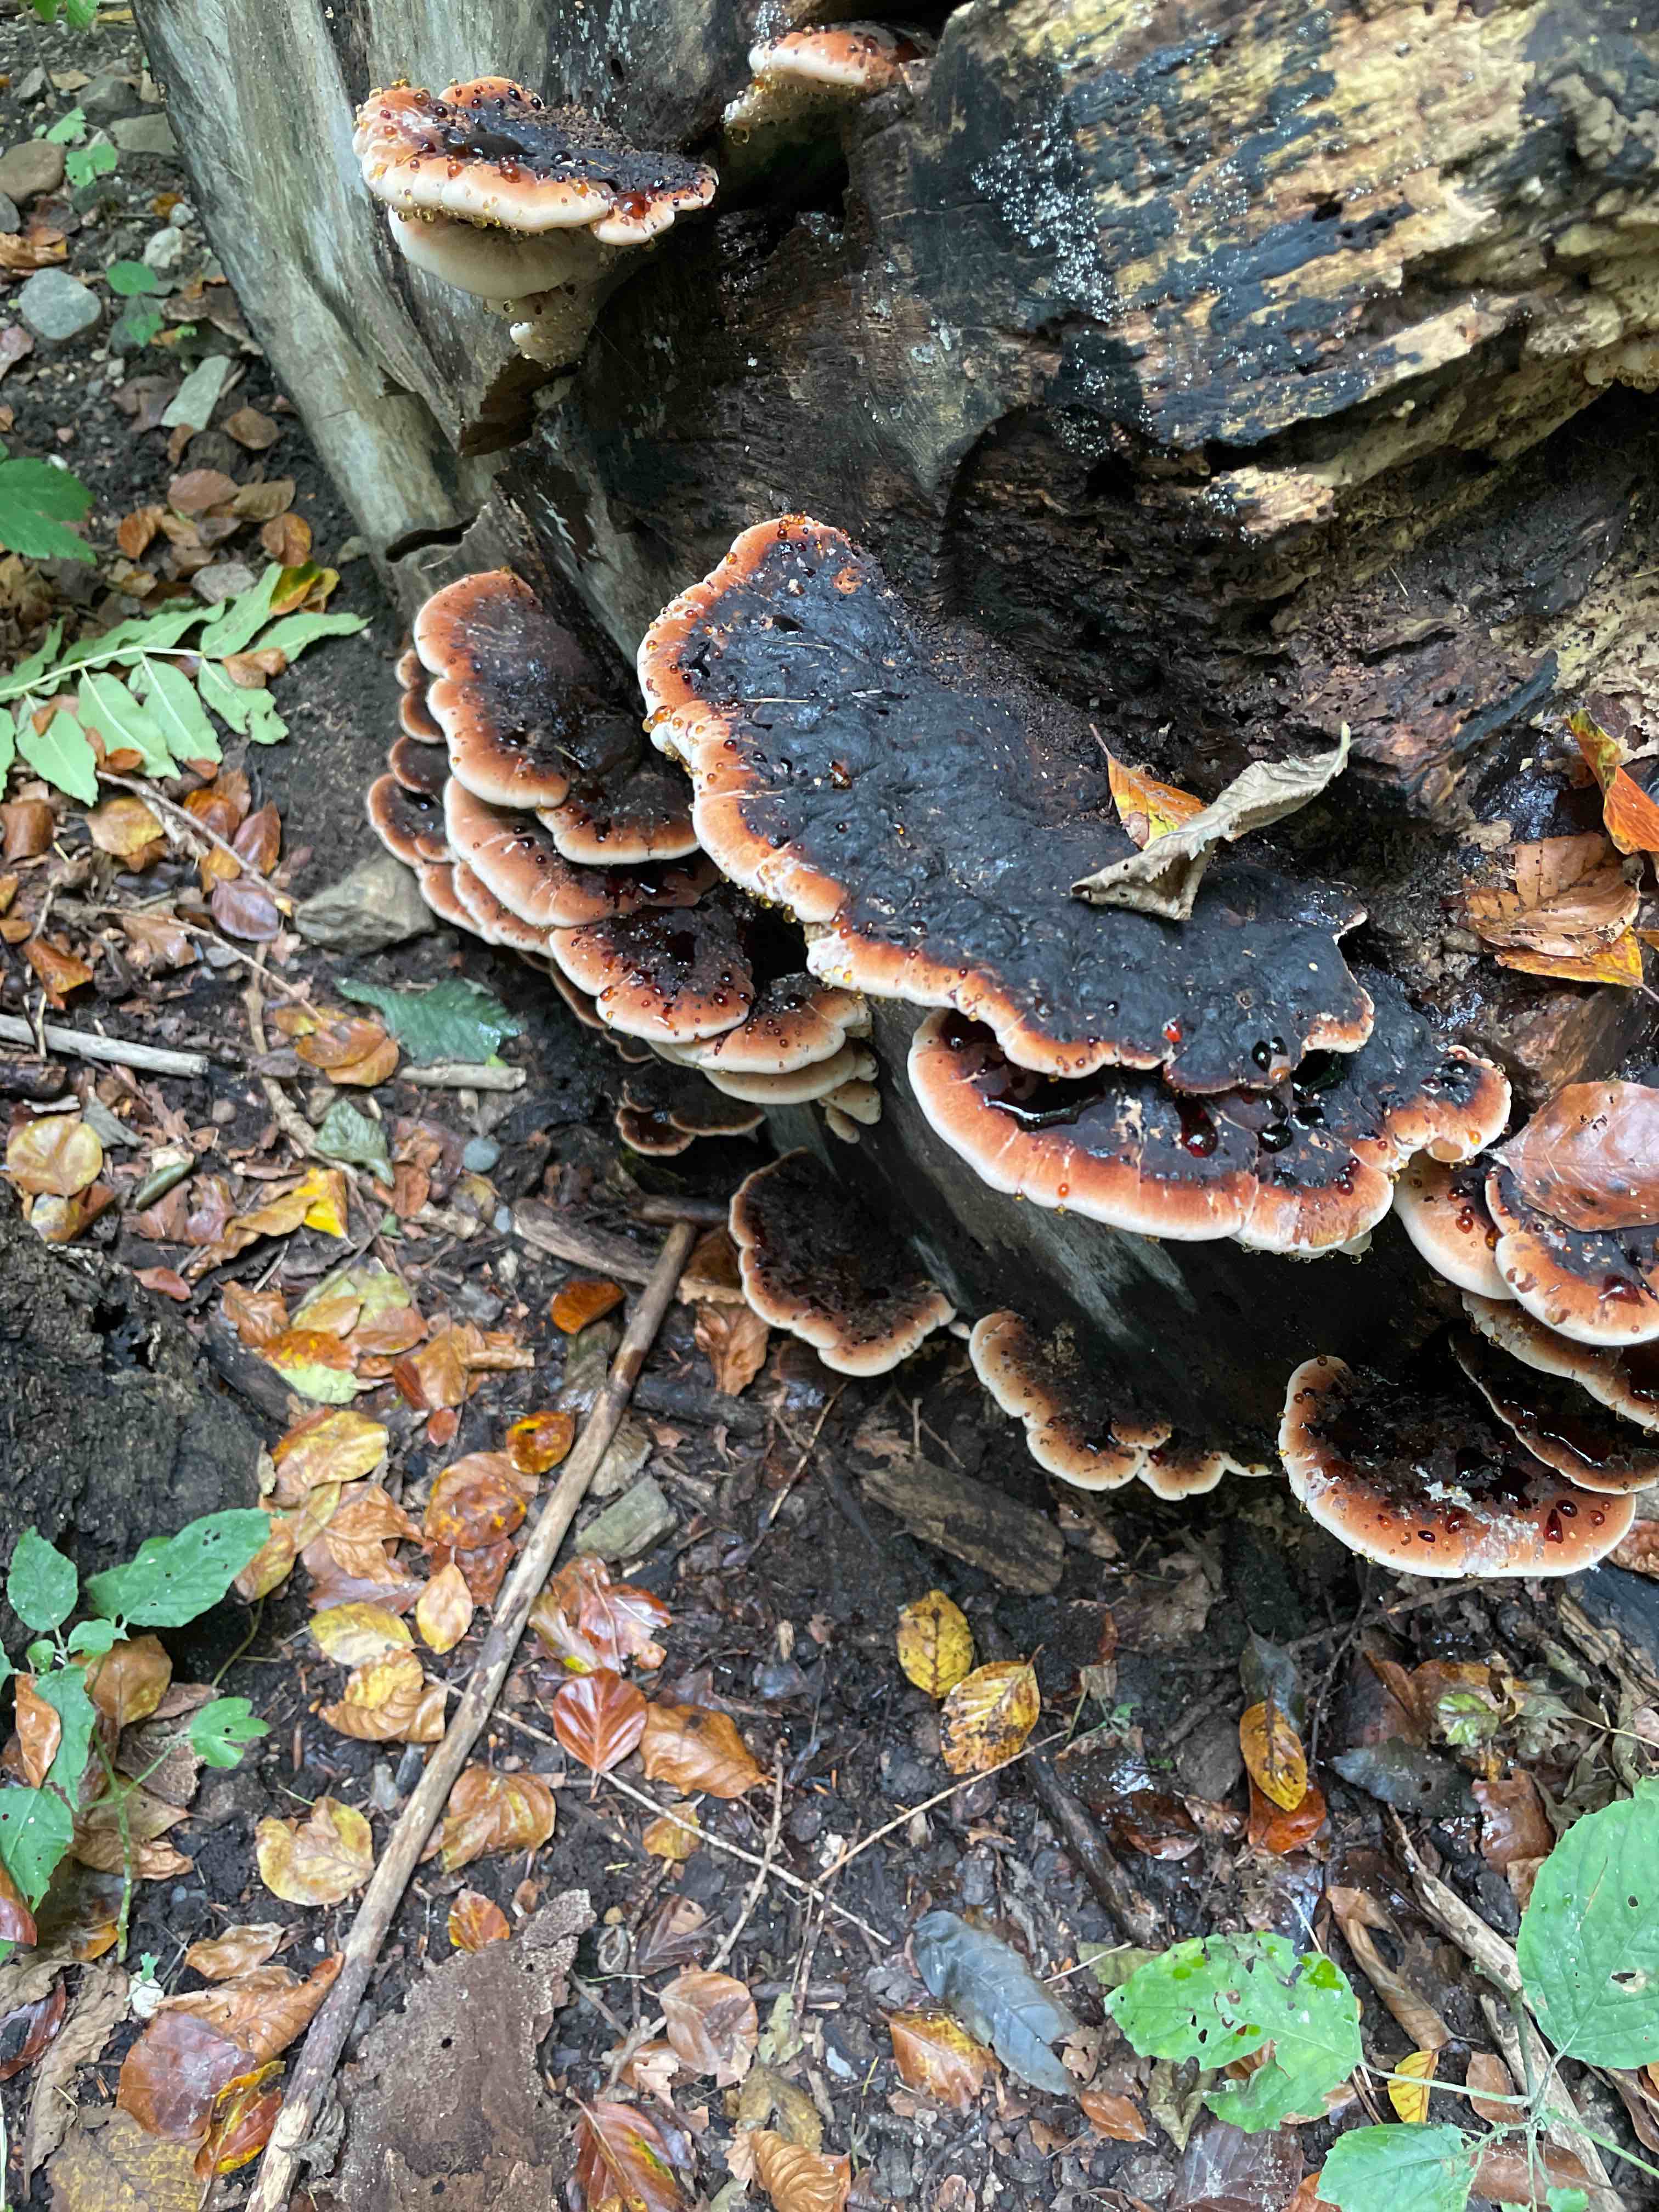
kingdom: Fungi
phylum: Basidiomycota
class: Agaricomycetes
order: Polyporales
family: Ischnodermataceae
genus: Ischnoderma
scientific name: Ischnoderma resinosum
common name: løv-tjæreporesvamp
